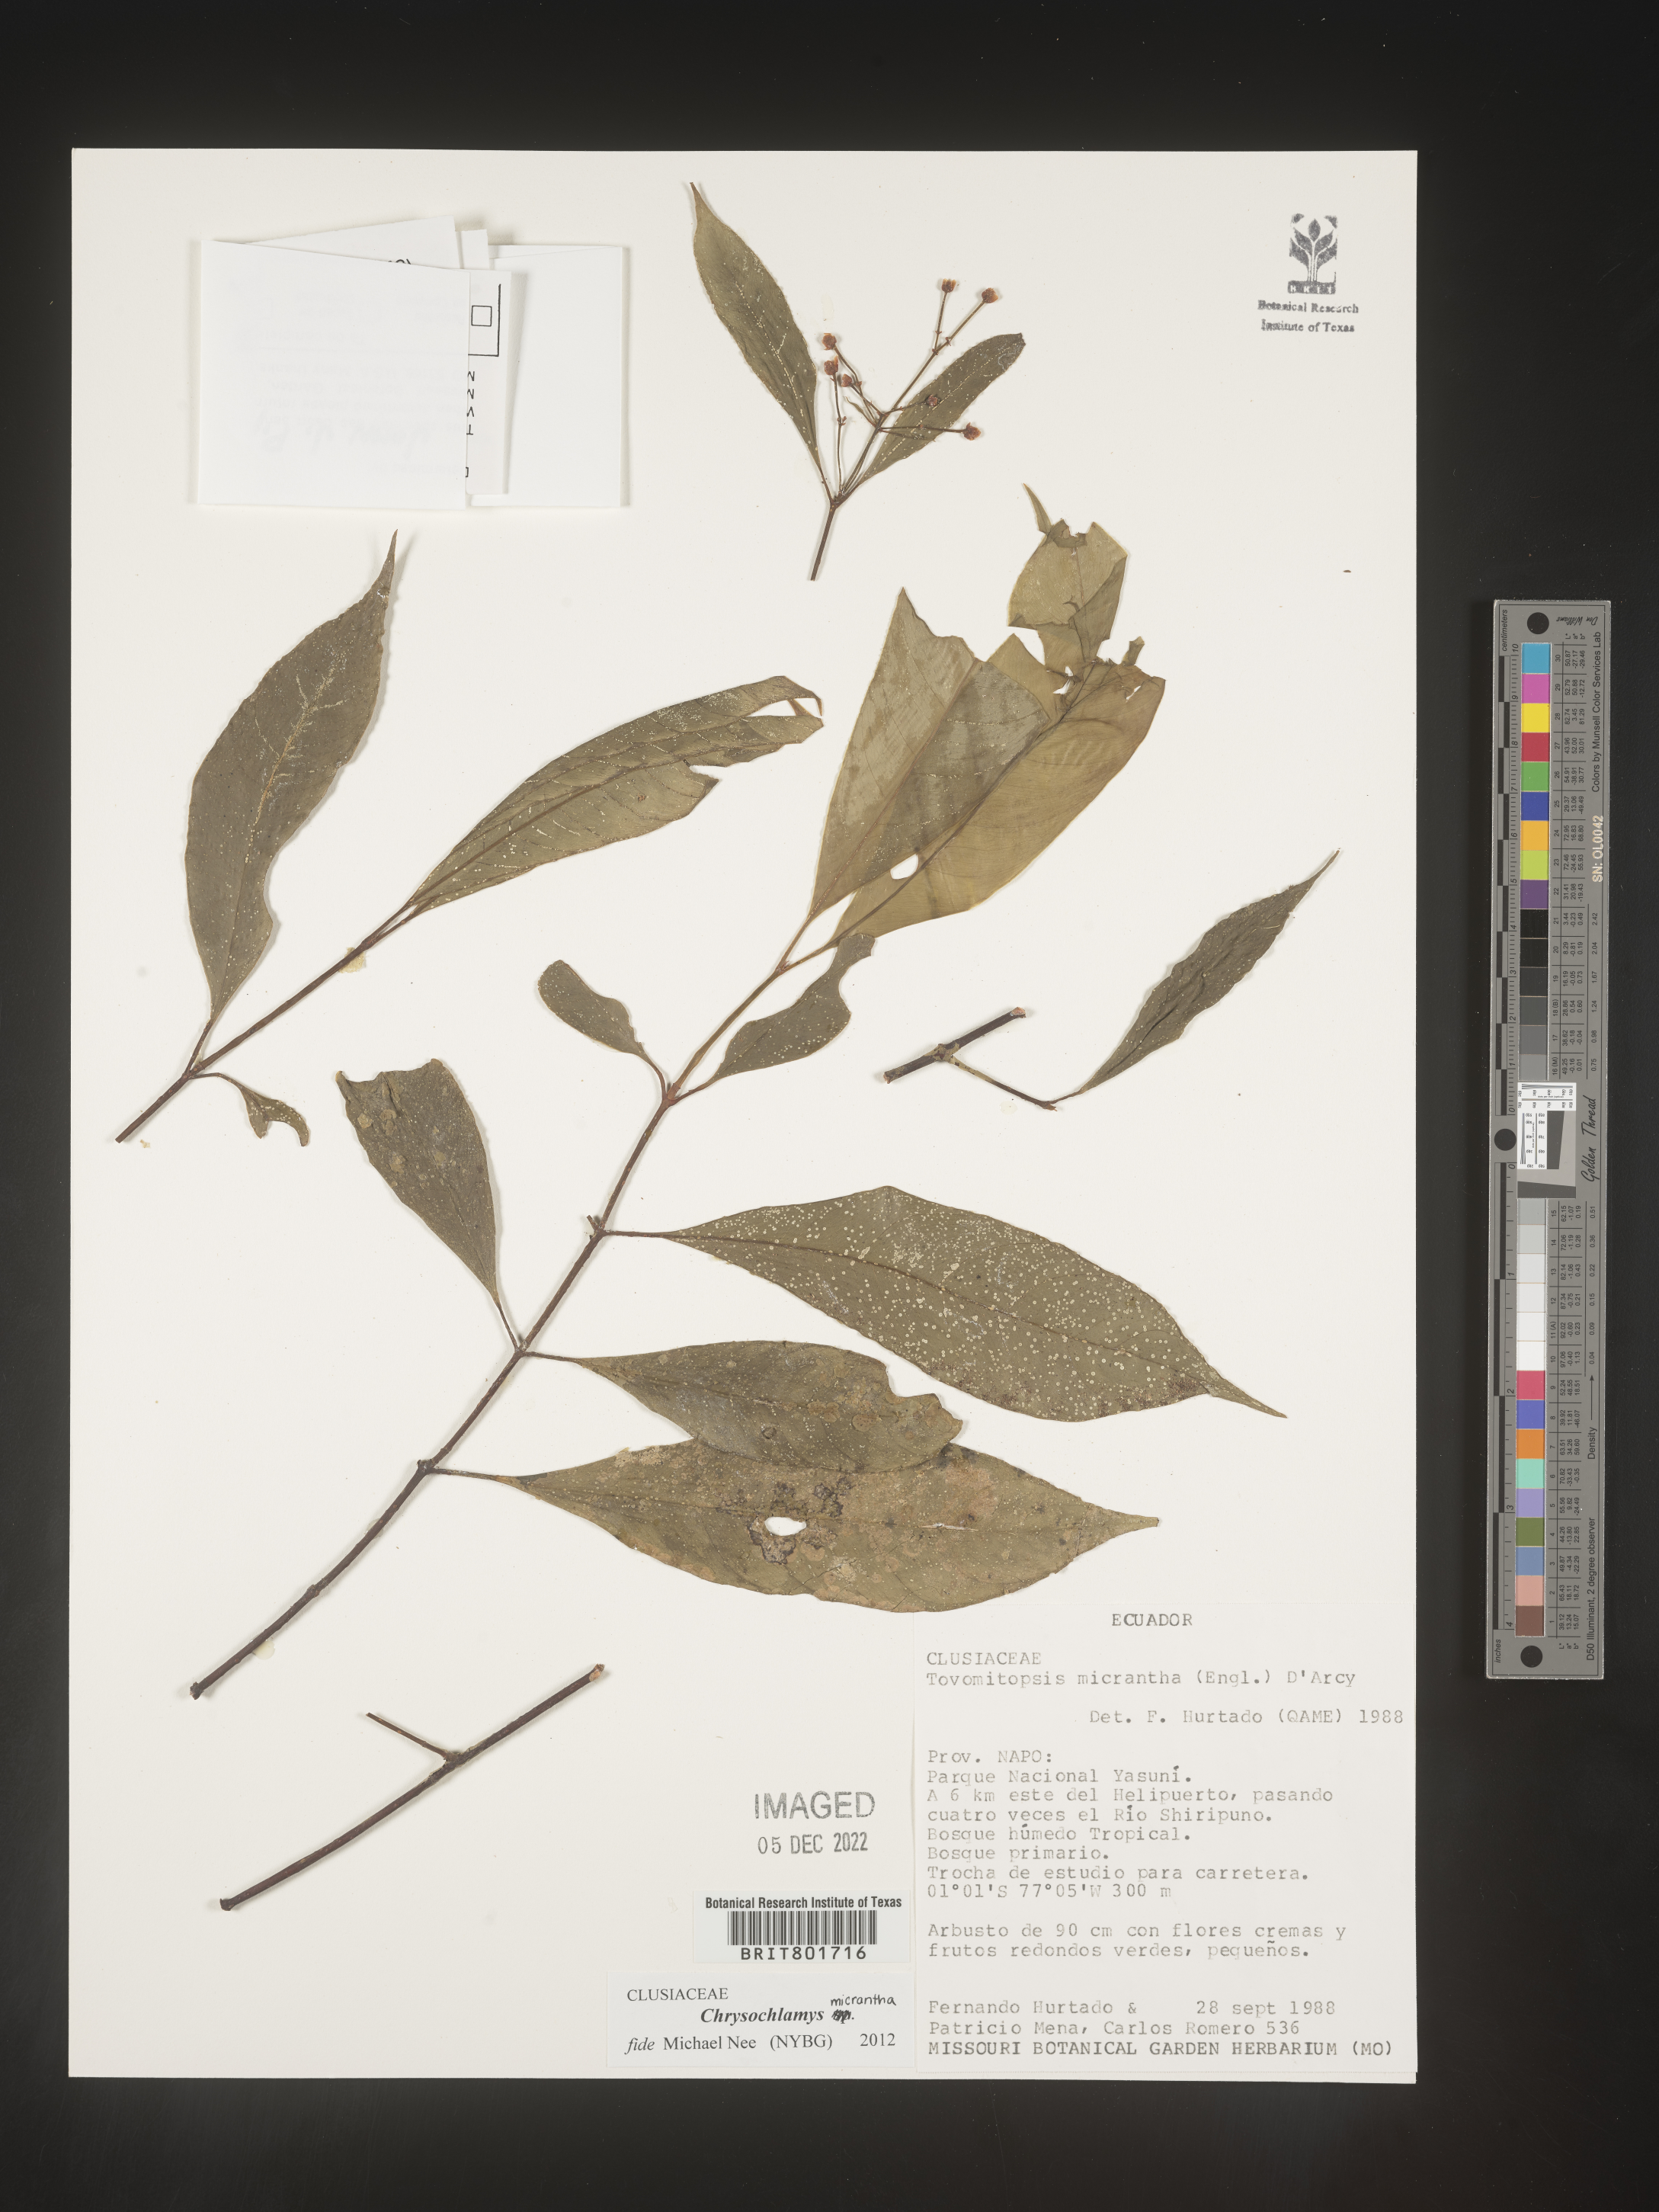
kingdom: Plantae
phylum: Tracheophyta
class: Magnoliopsida
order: Malpighiales
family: Clusiaceae
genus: Chrysochlamys
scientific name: Chrysochlamys membranacea
